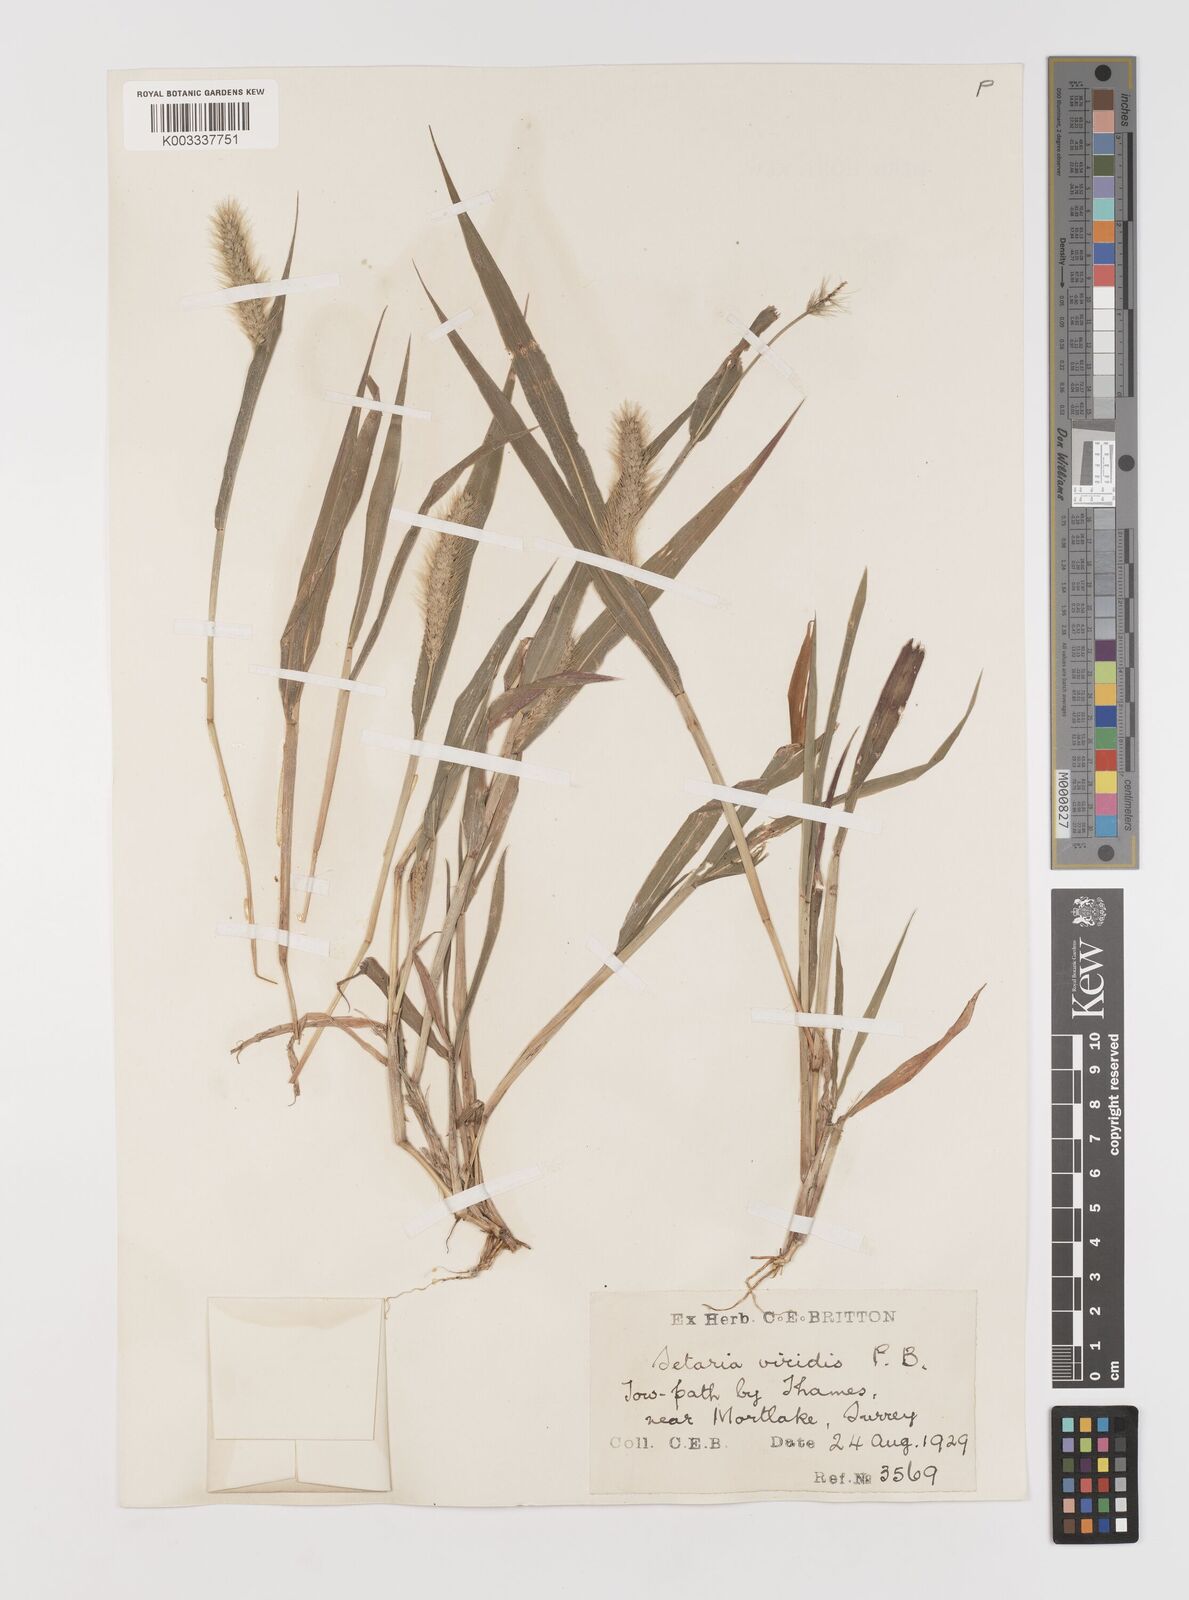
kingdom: Plantae
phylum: Tracheophyta
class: Liliopsida
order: Poales
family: Poaceae
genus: Setaria
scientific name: Setaria viridis
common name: Green bristlegrass
